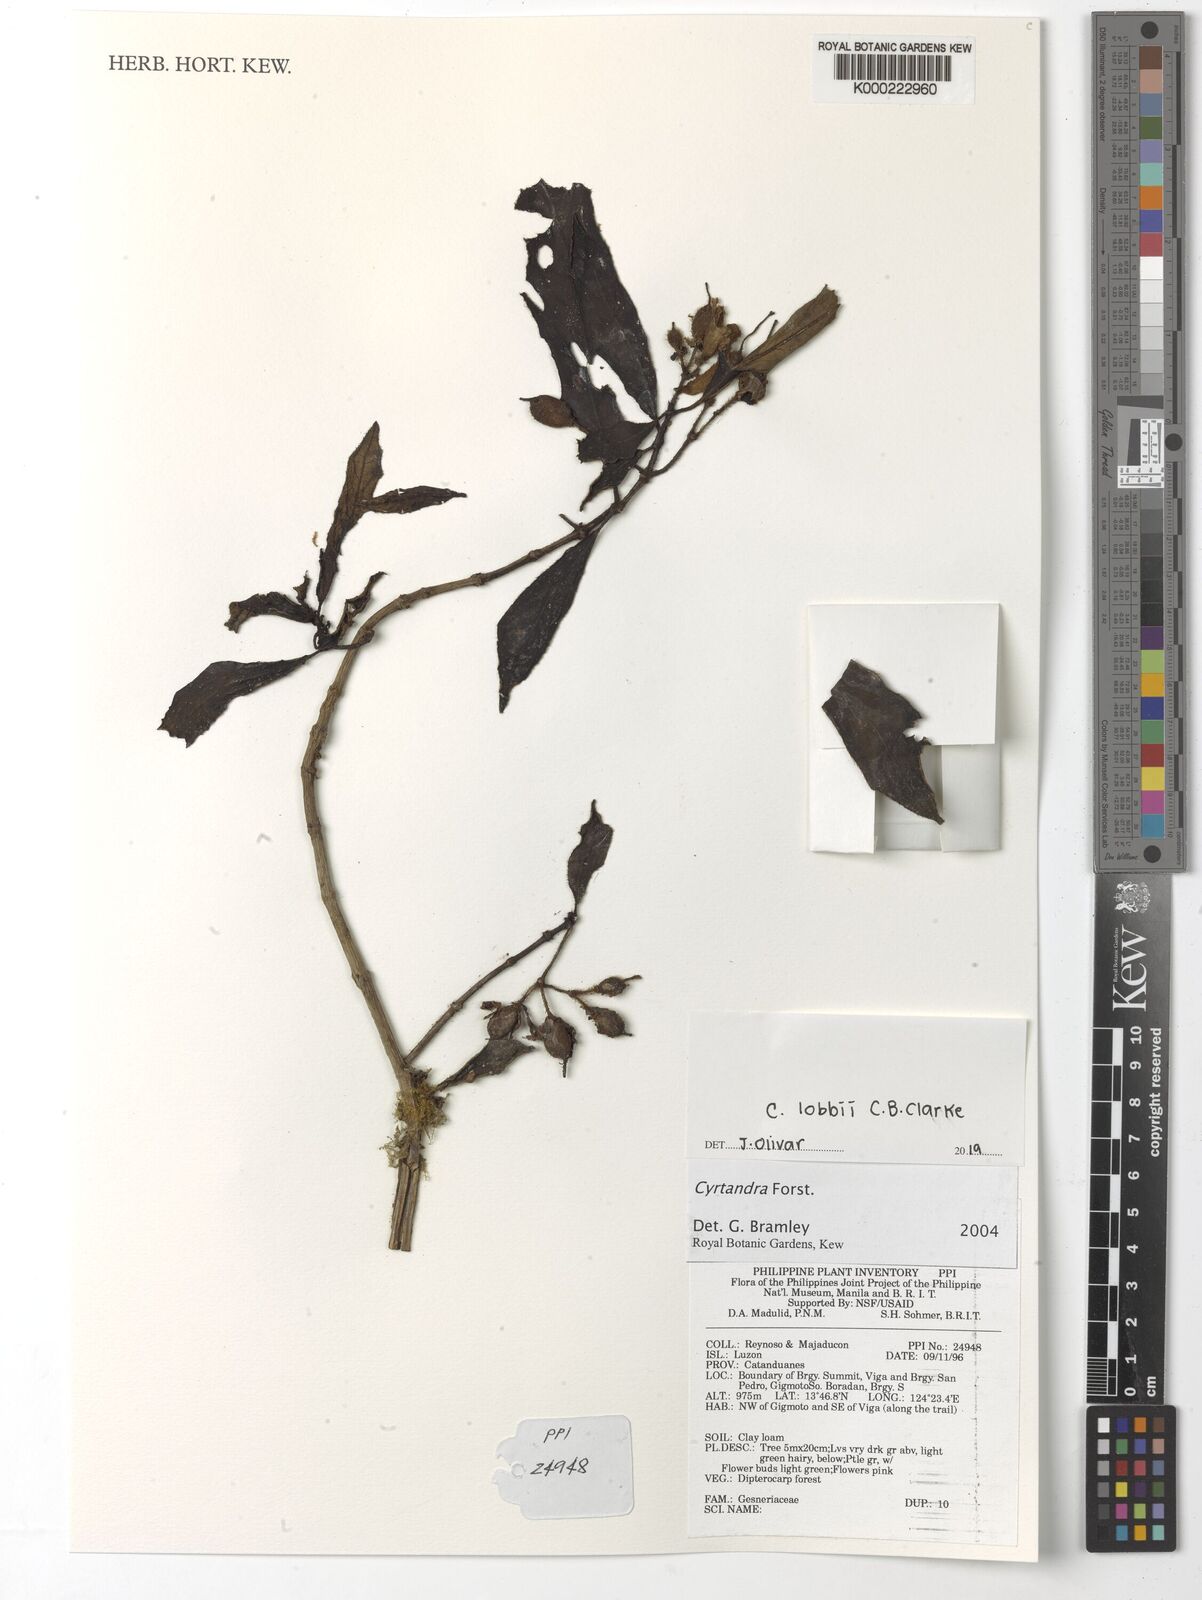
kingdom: Plantae
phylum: Tracheophyta
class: Magnoliopsida
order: Lamiales
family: Gesneriaceae
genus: Cyrtandra
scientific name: Cyrtandra
